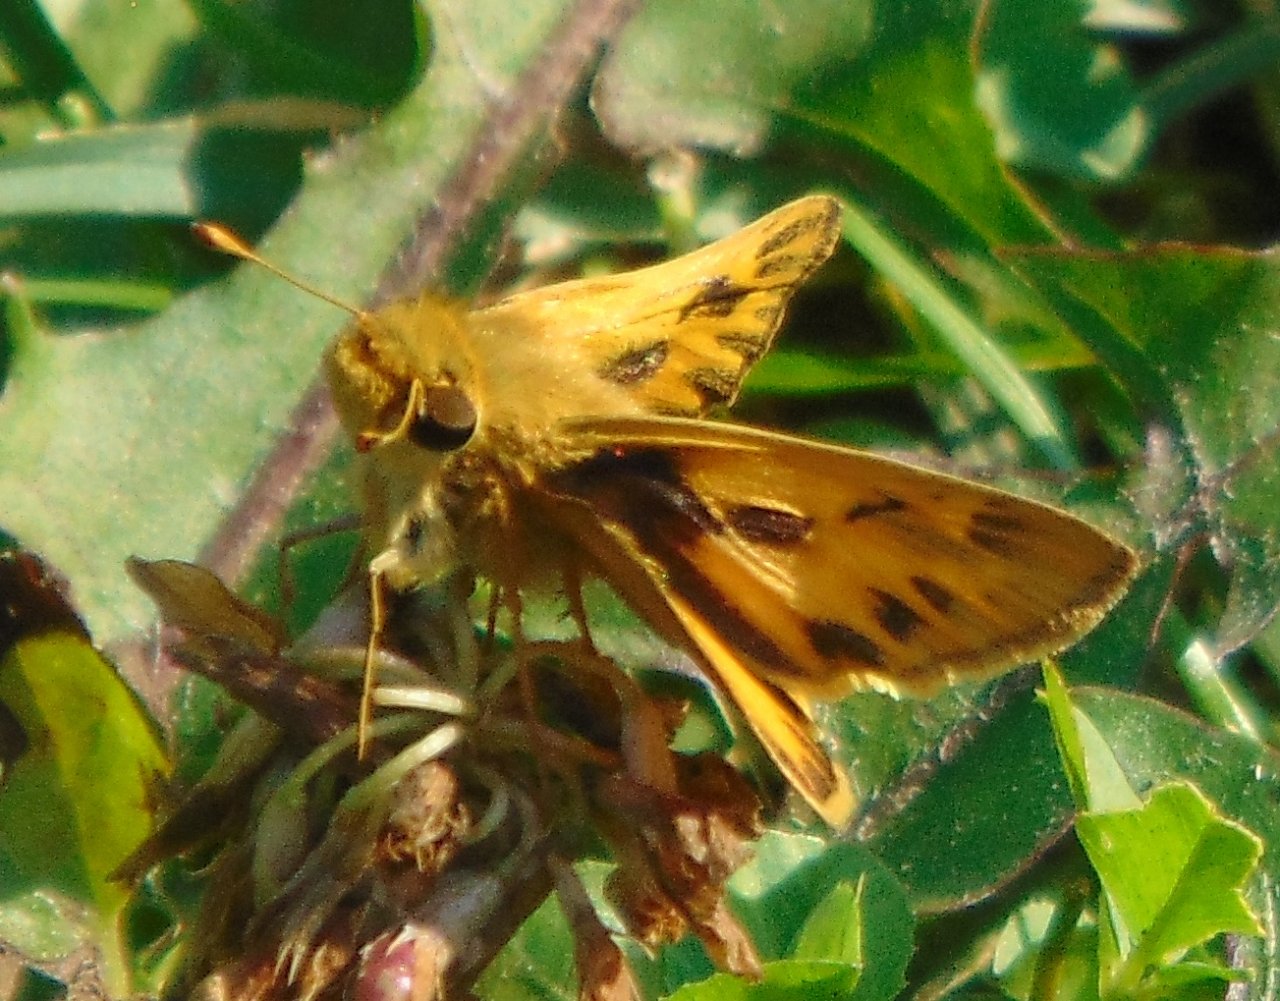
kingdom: Animalia
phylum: Arthropoda
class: Insecta
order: Lepidoptera
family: Hesperiidae
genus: Hylephila
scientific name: Hylephila phyleus
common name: Fiery Skipper
